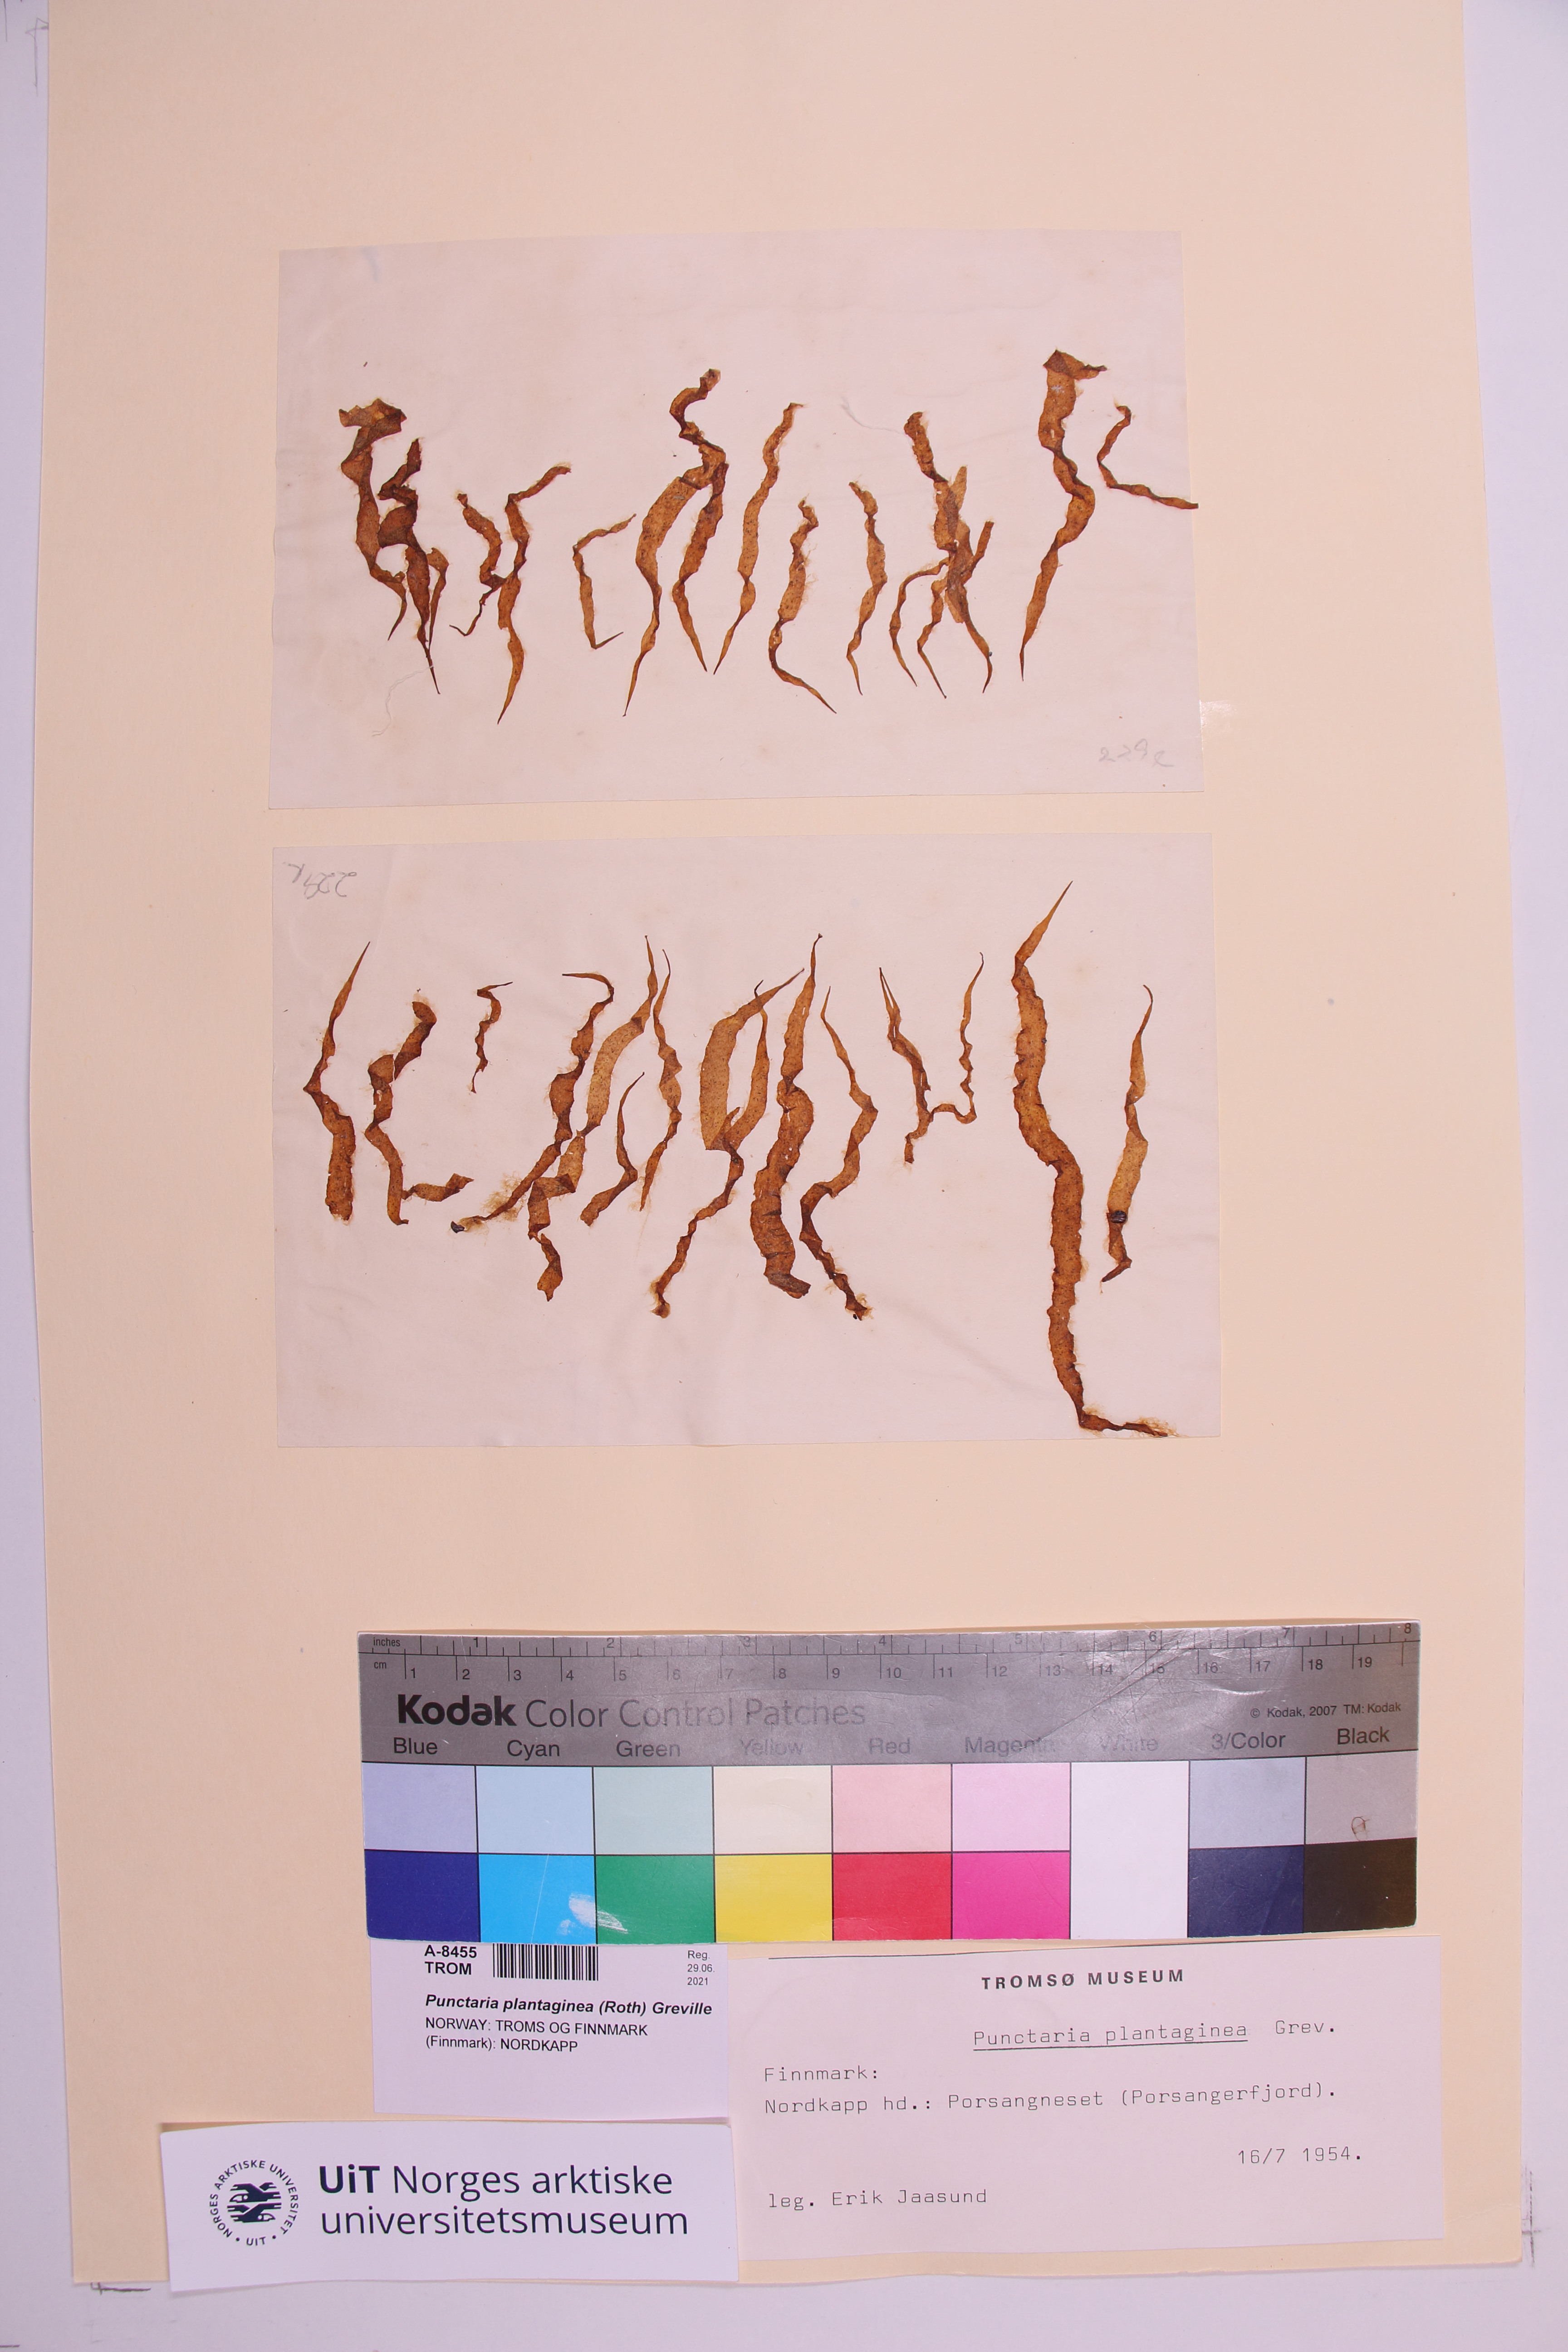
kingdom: Chromista
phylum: Ochrophyta
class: Phaeophyceae
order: Ectocarpales
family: Chordariaceae
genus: Punctaria
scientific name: Punctaria plantaginea
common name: Ribbon weed
